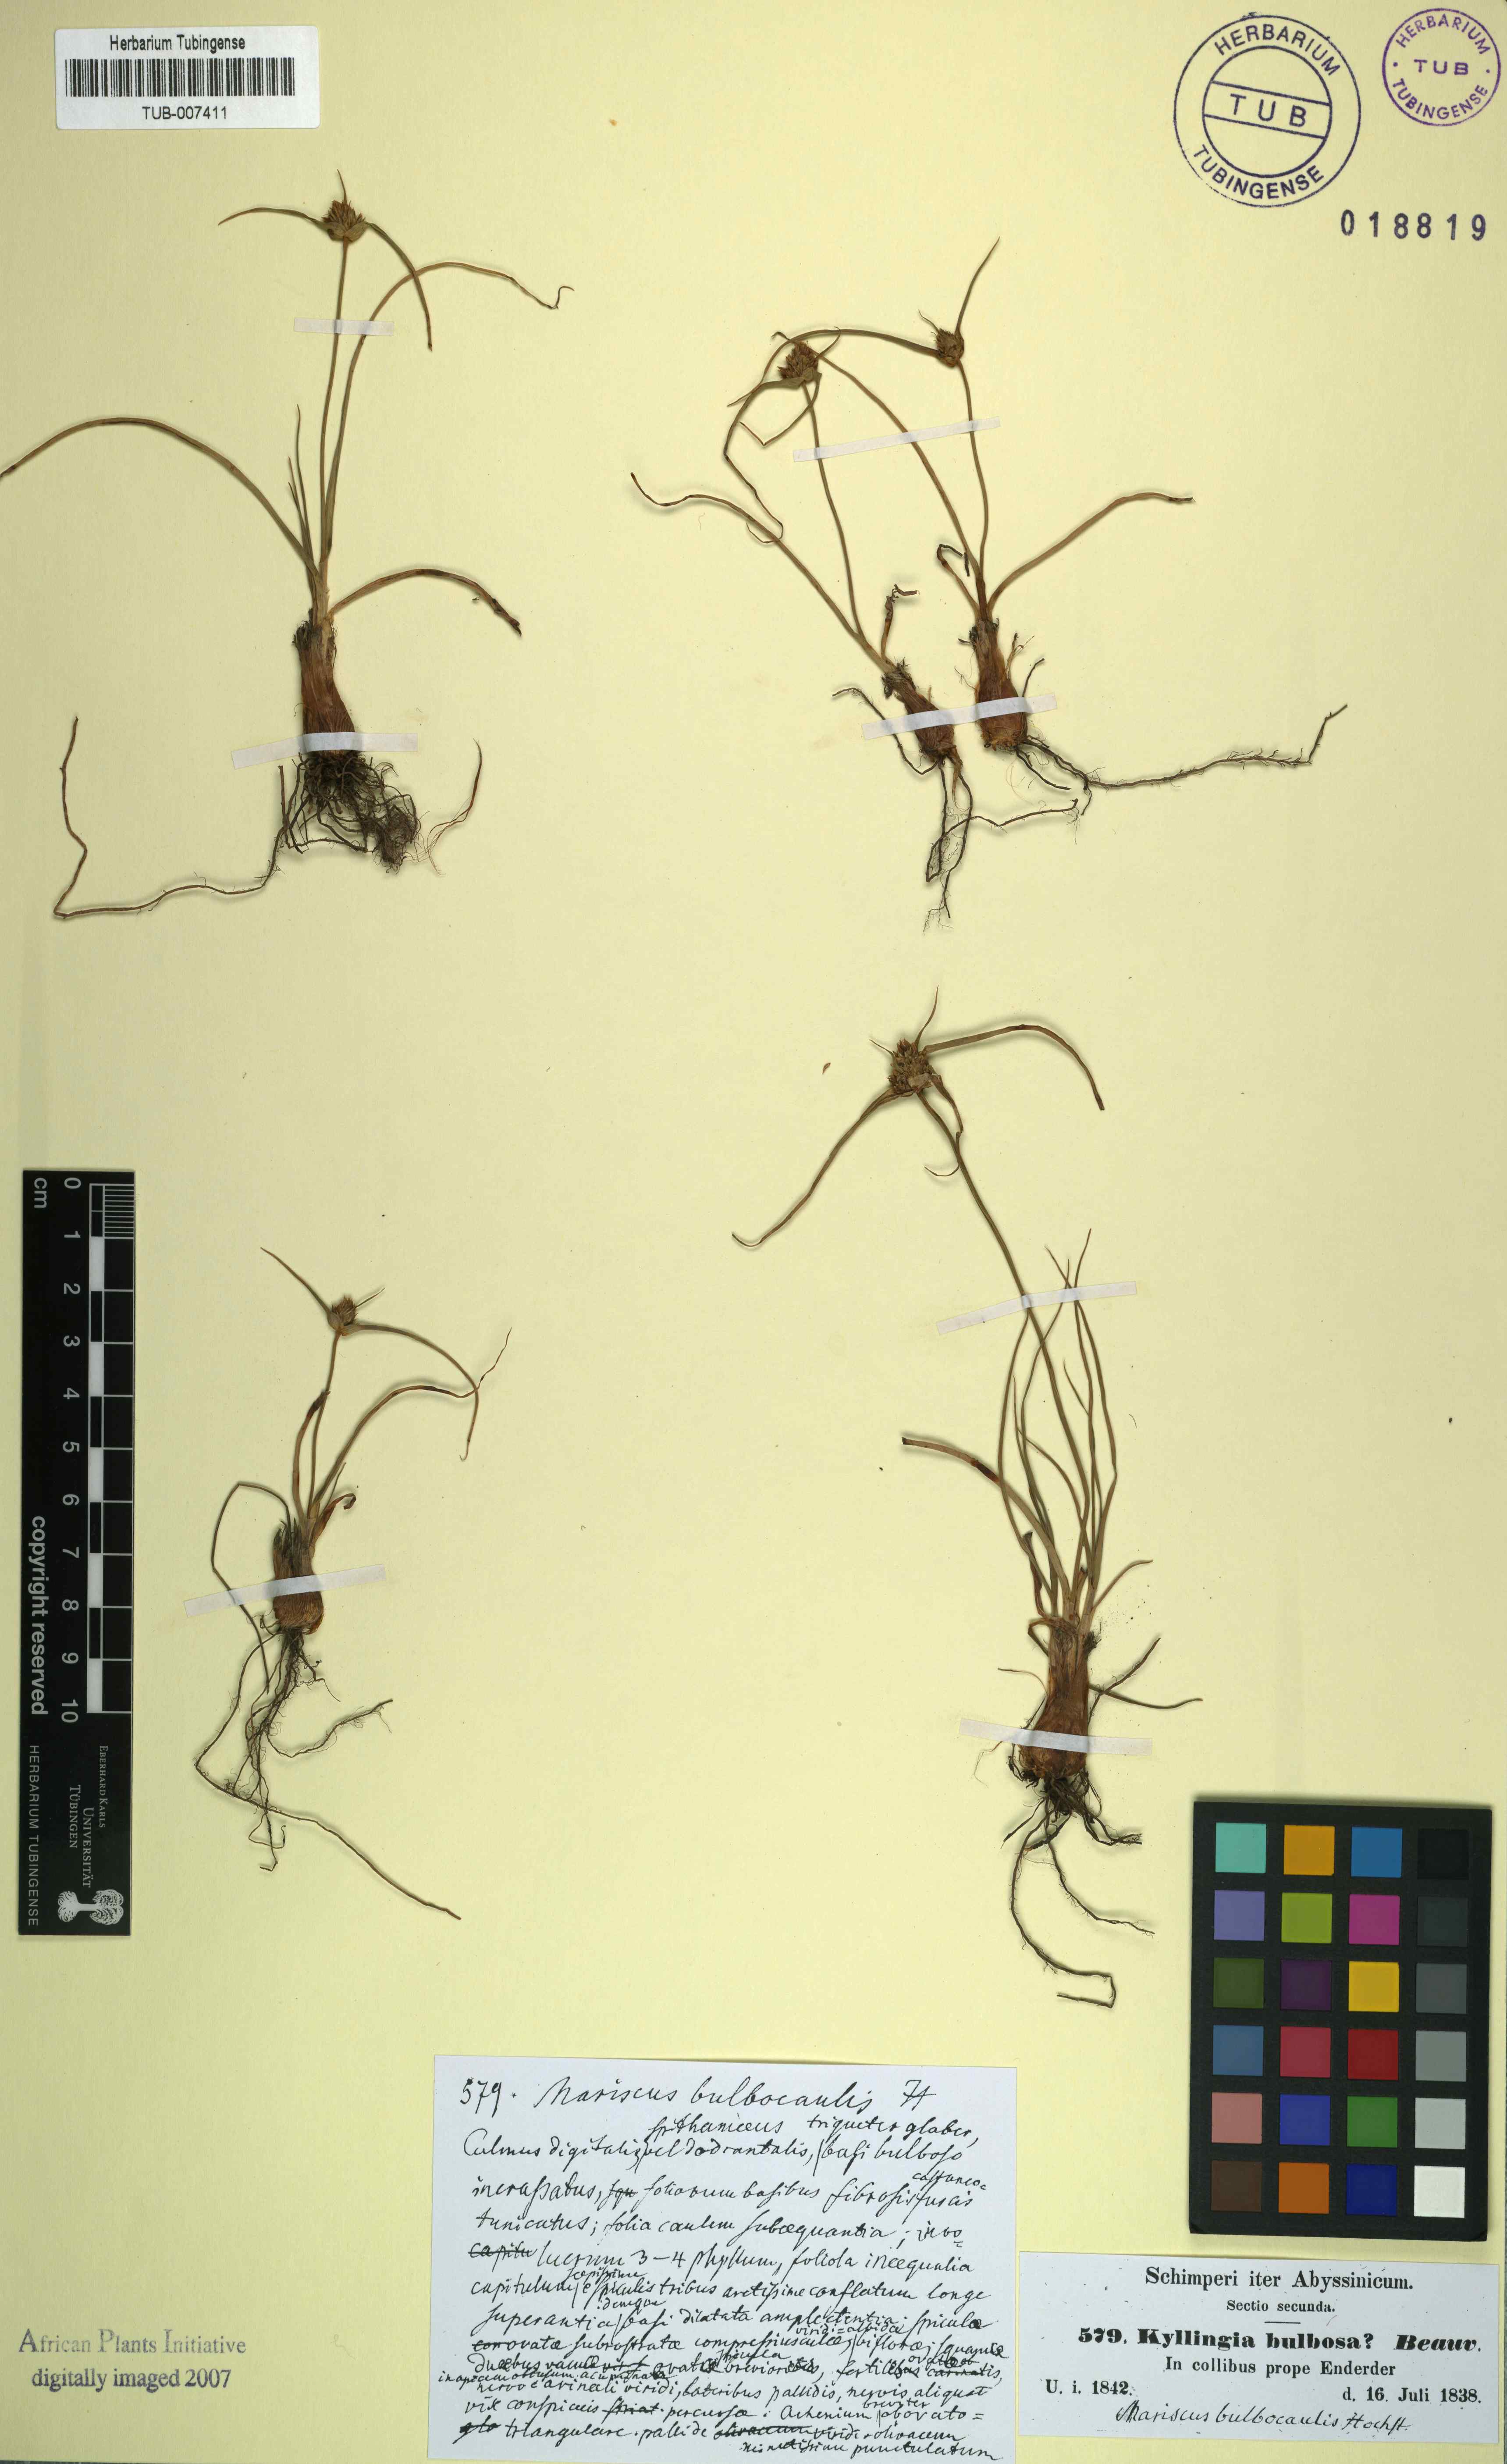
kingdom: Plantae
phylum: Tracheophyta
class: Liliopsida
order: Poales
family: Cyperaceae
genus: Cladium
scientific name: Cladium Mariscus bulbocaulis
